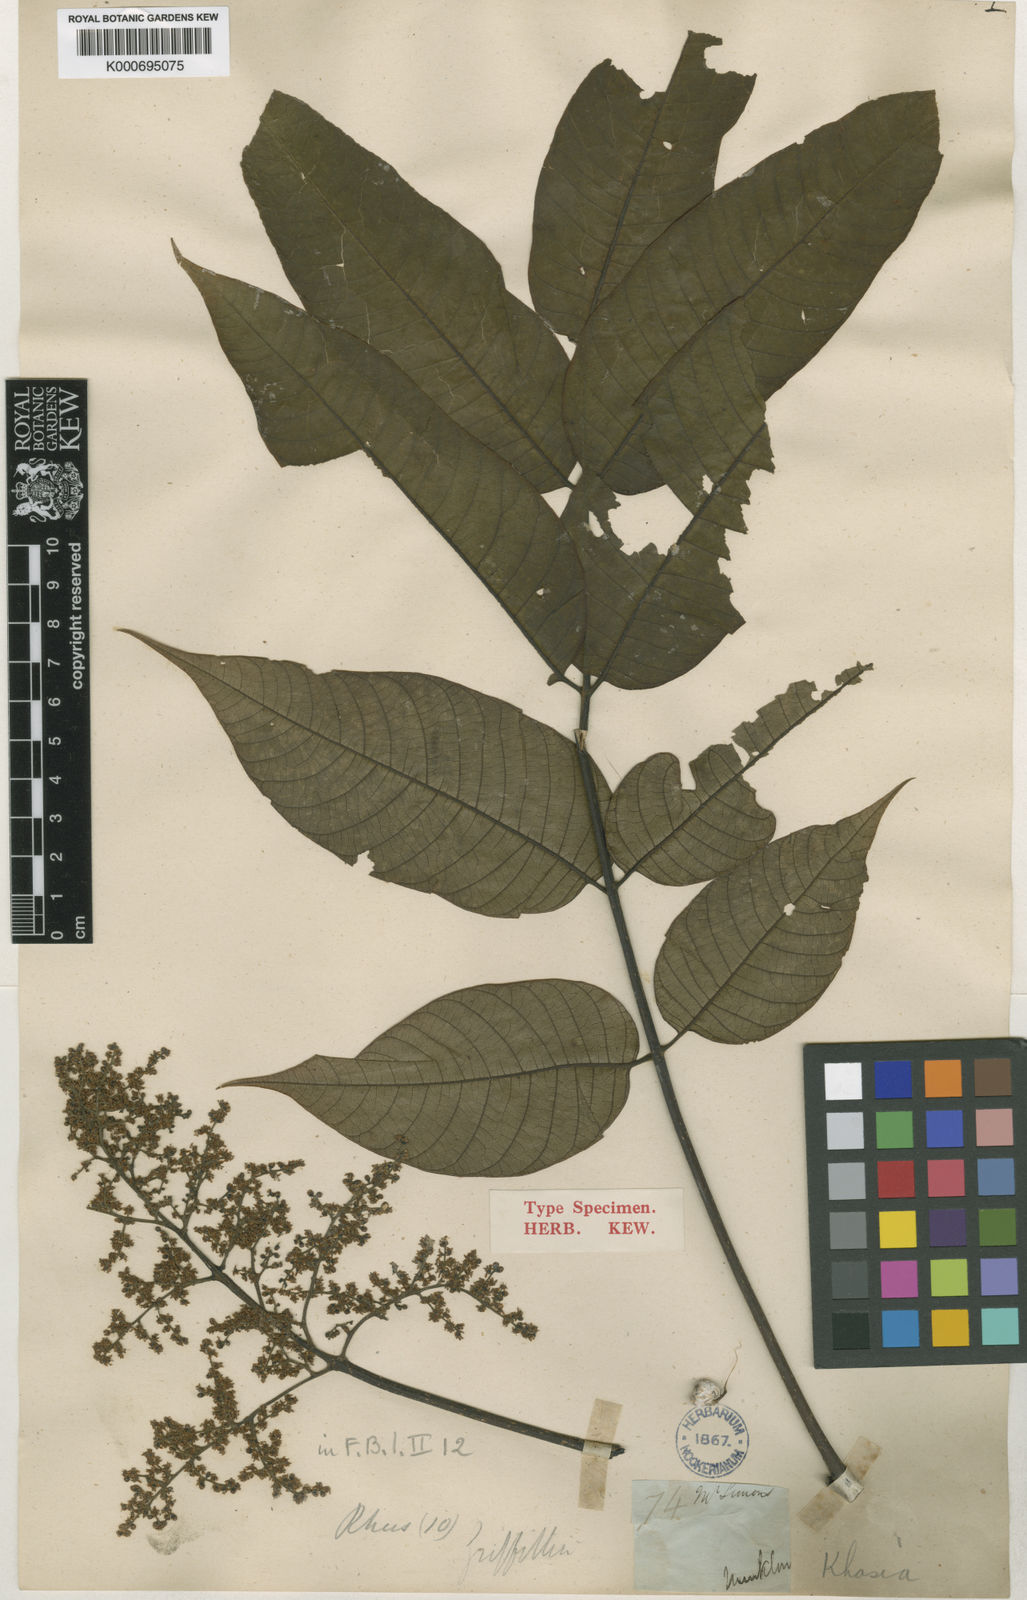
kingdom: Plantae
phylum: Tracheophyta
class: Magnoliopsida
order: Sapindales
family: Anacardiaceae
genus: Toxicodendron
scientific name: Toxicodendron griffithii
